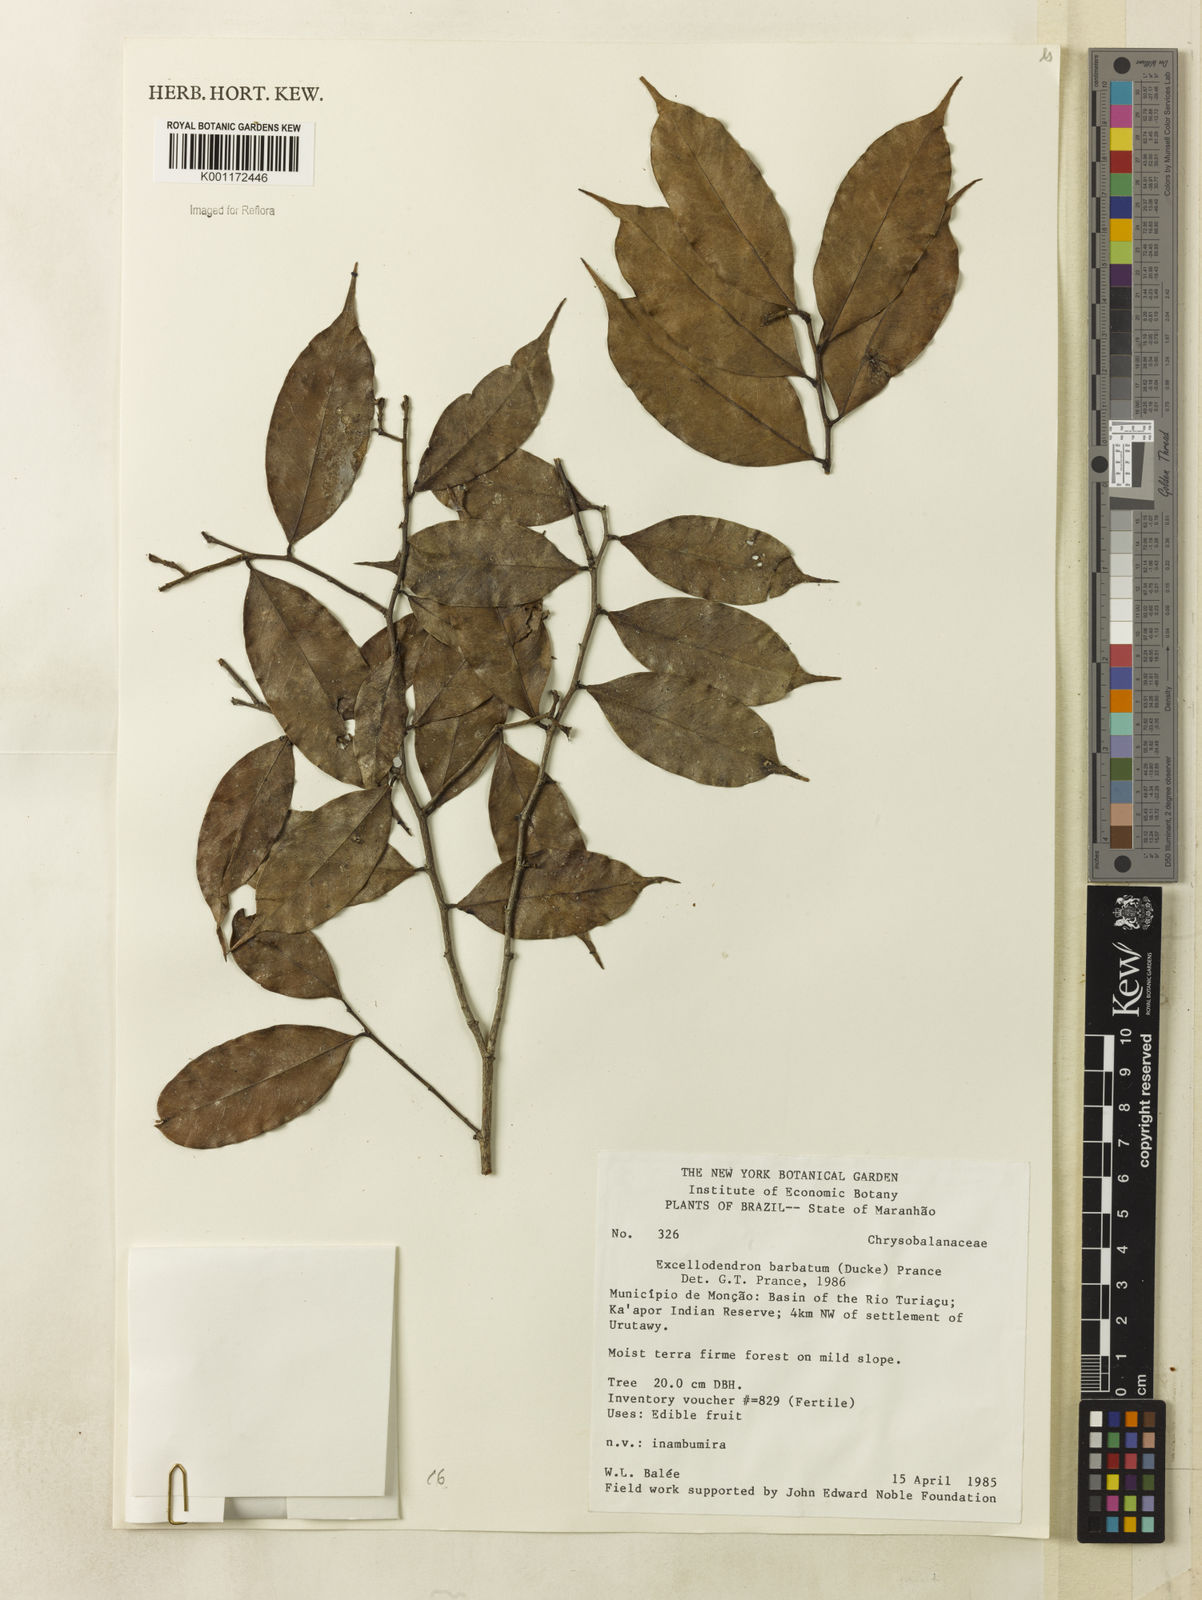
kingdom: Plantae
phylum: Tracheophyta
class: Magnoliopsida
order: Malpighiales
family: Chrysobalanaceae
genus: Atuna
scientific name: Atuna
